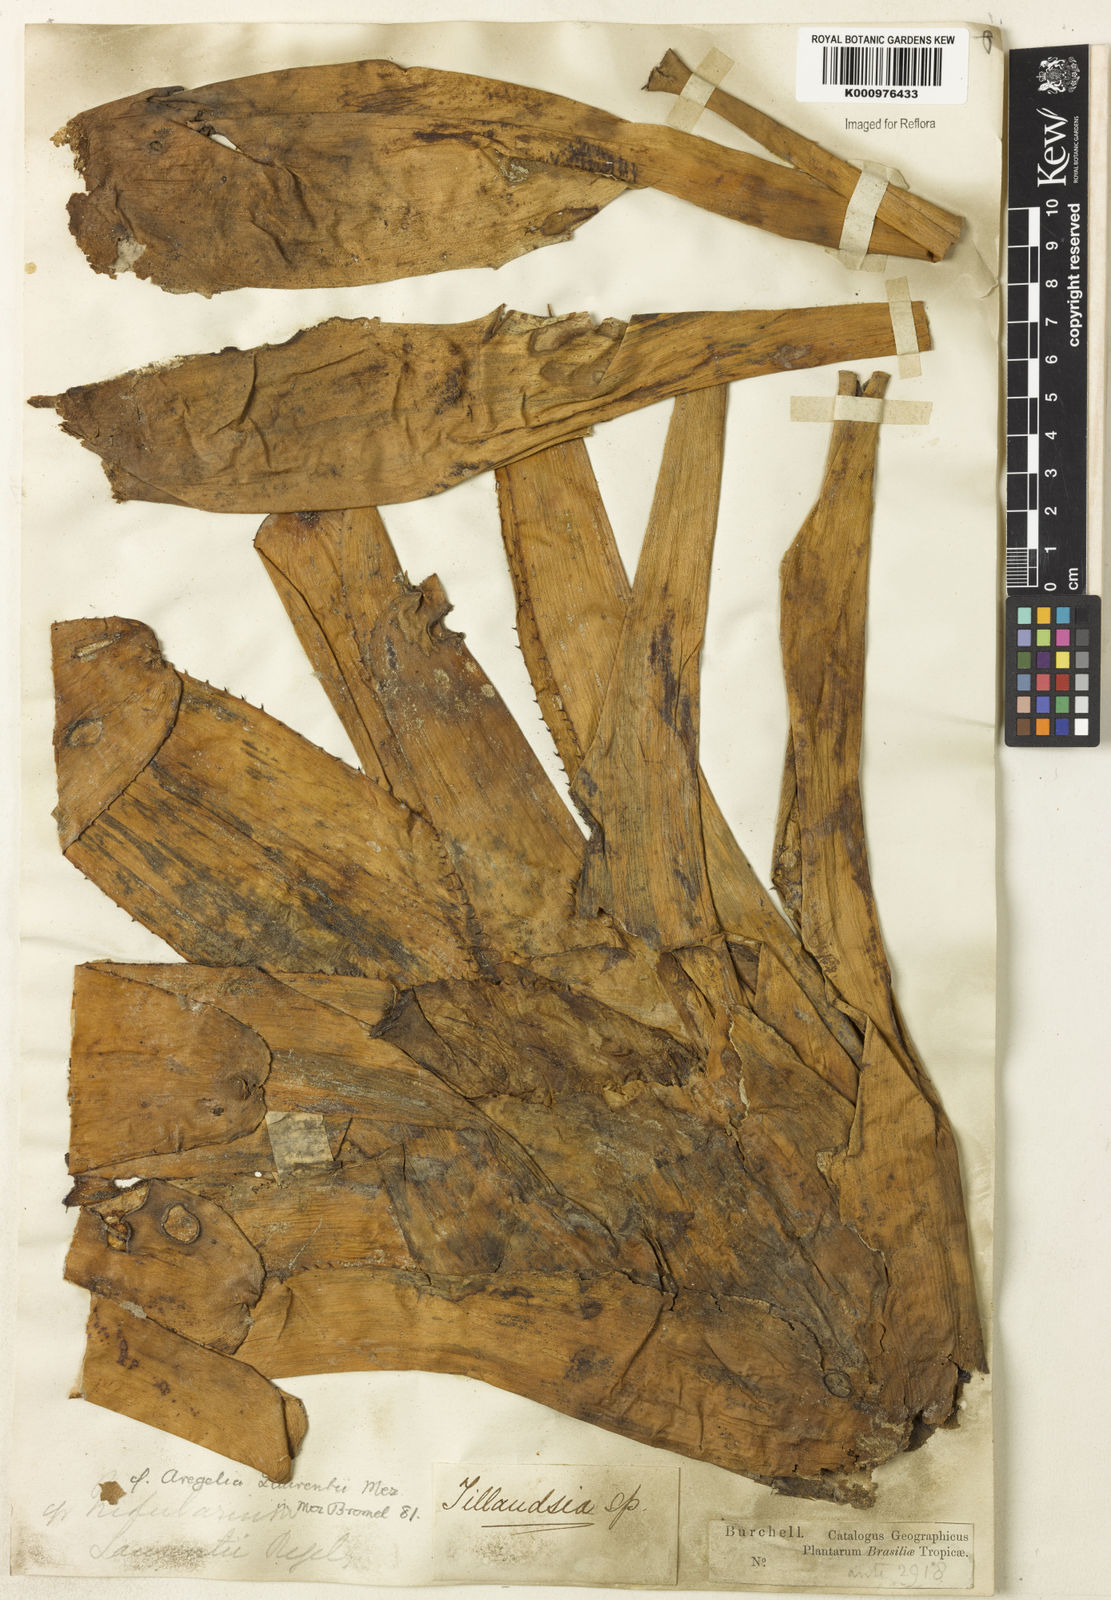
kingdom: Plantae
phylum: Tracheophyta
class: Liliopsida
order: Poales
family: Bromeliaceae
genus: Neoregelia
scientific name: Neoregelia concentrica
